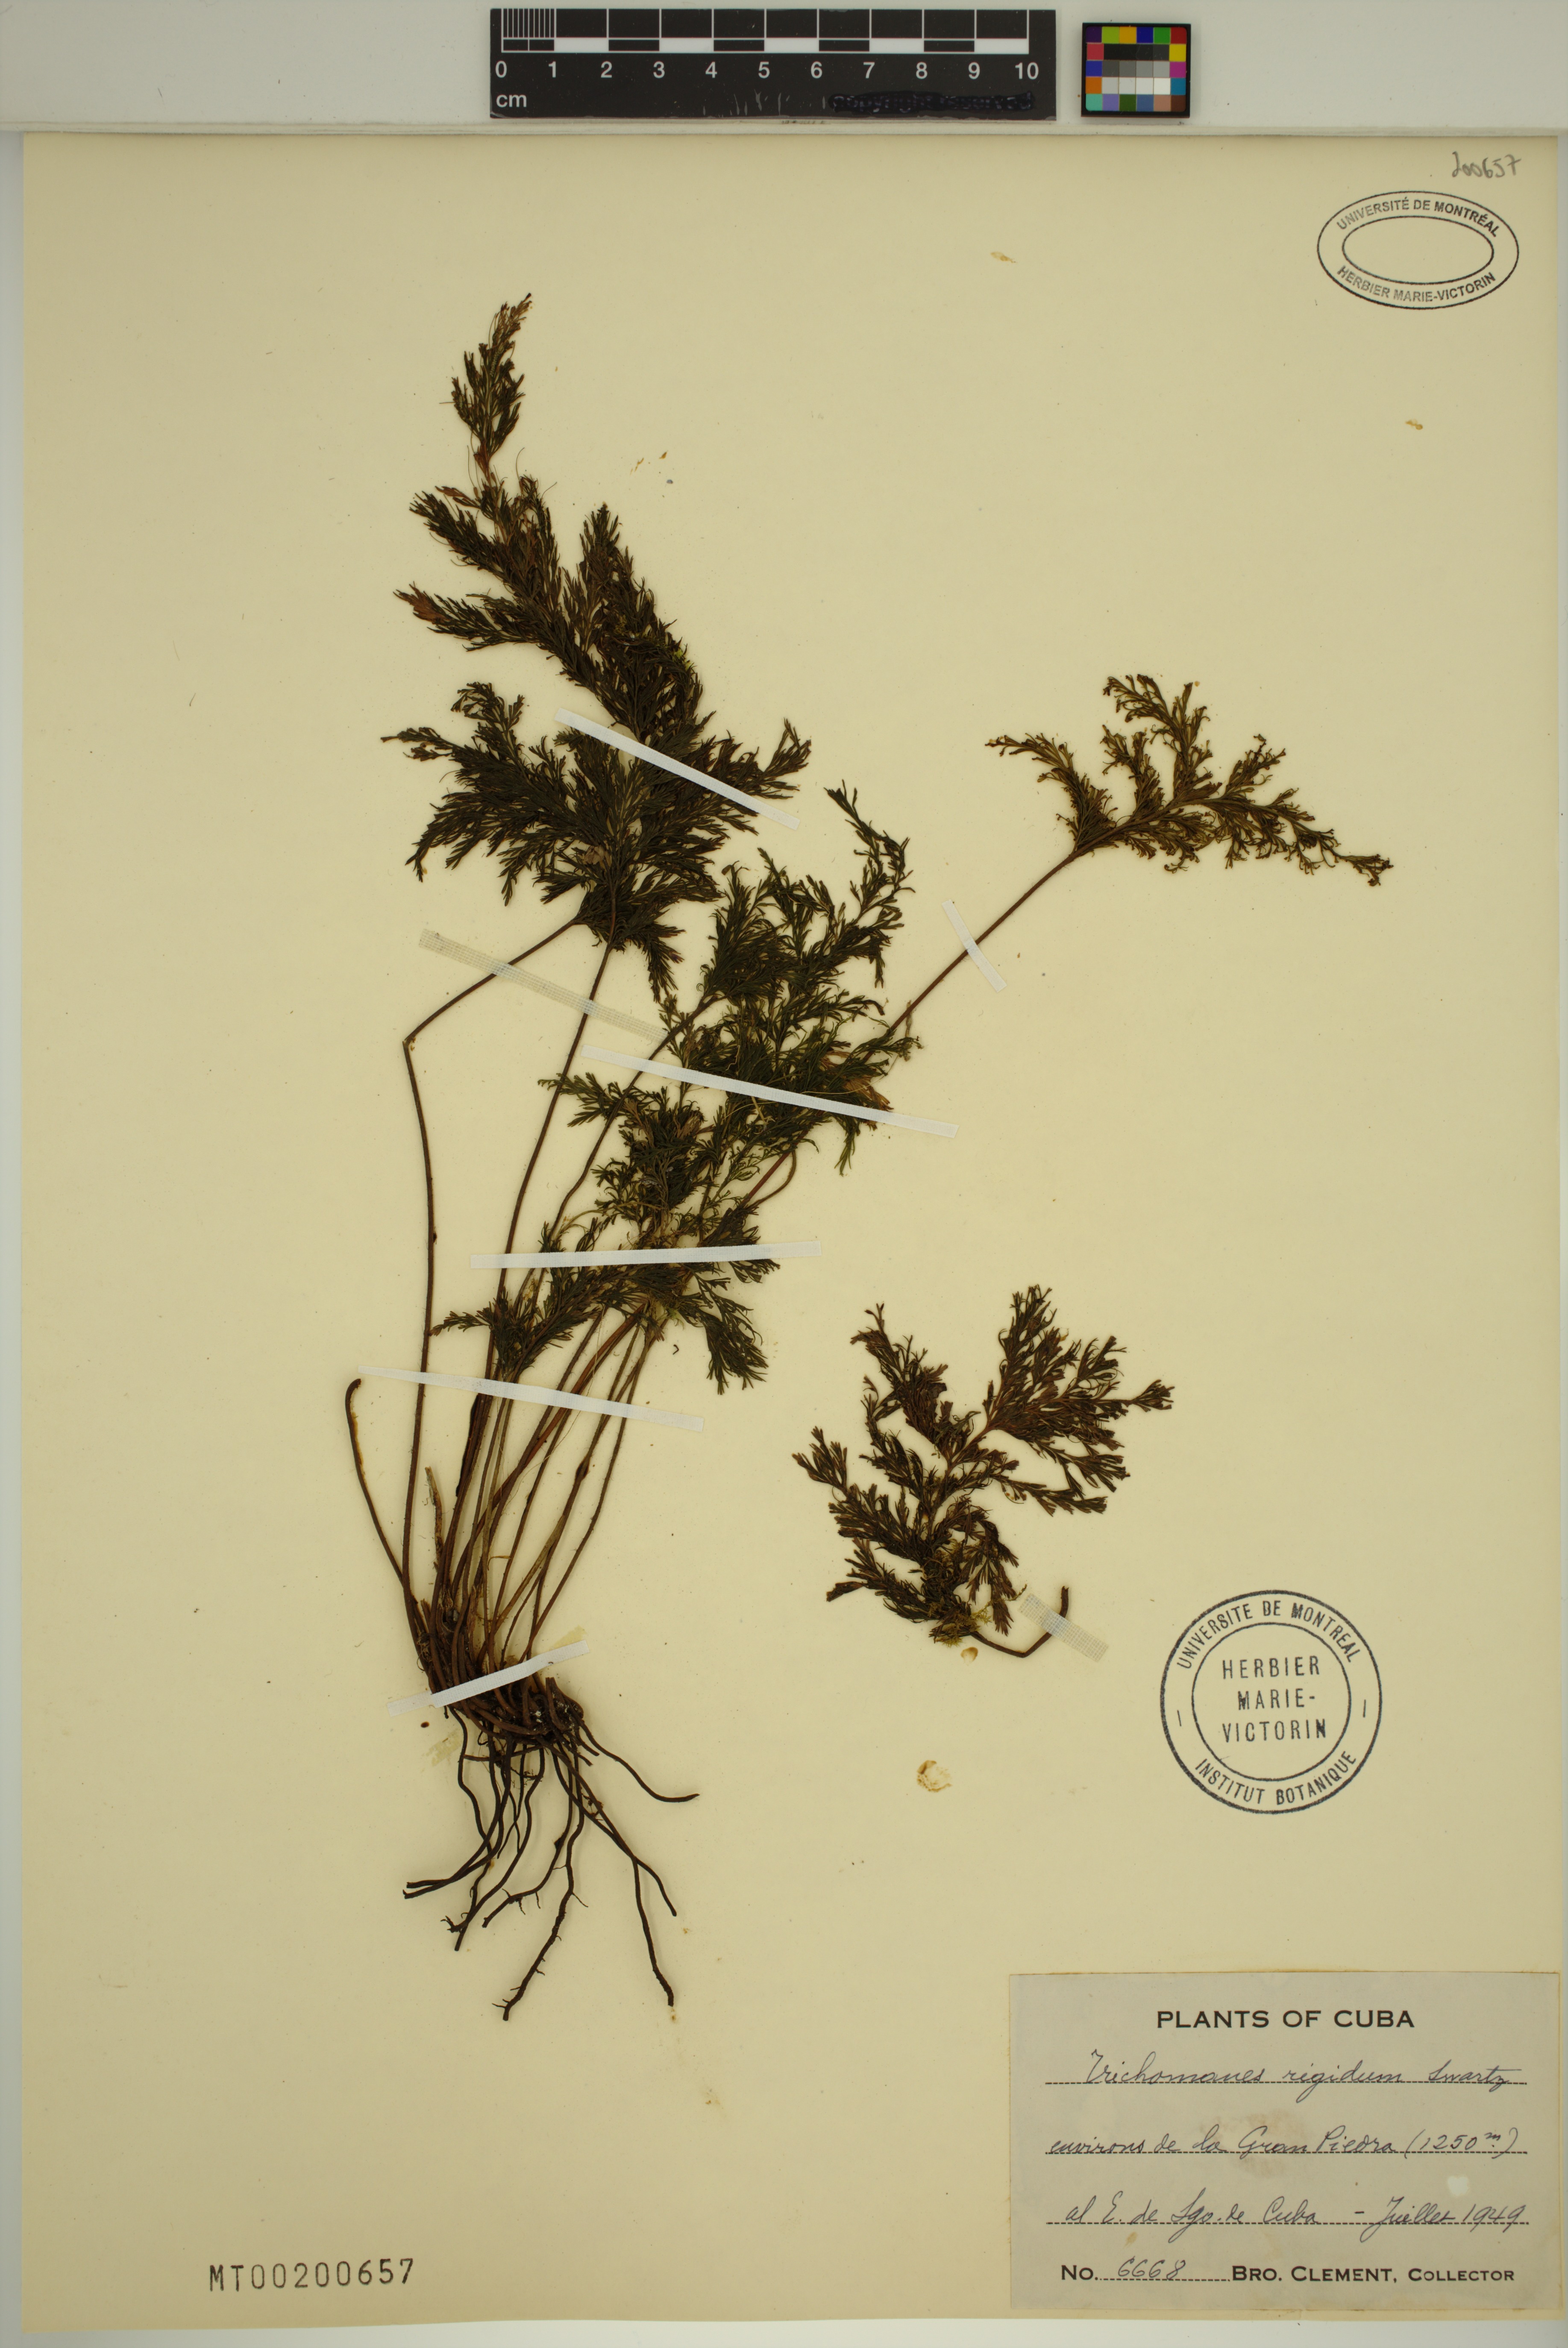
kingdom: Plantae
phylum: Tracheophyta
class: Polypodiopsida
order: Hymenophyllales
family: Hymenophyllaceae
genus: Abrodictyum
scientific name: Abrodictyum rigidum
